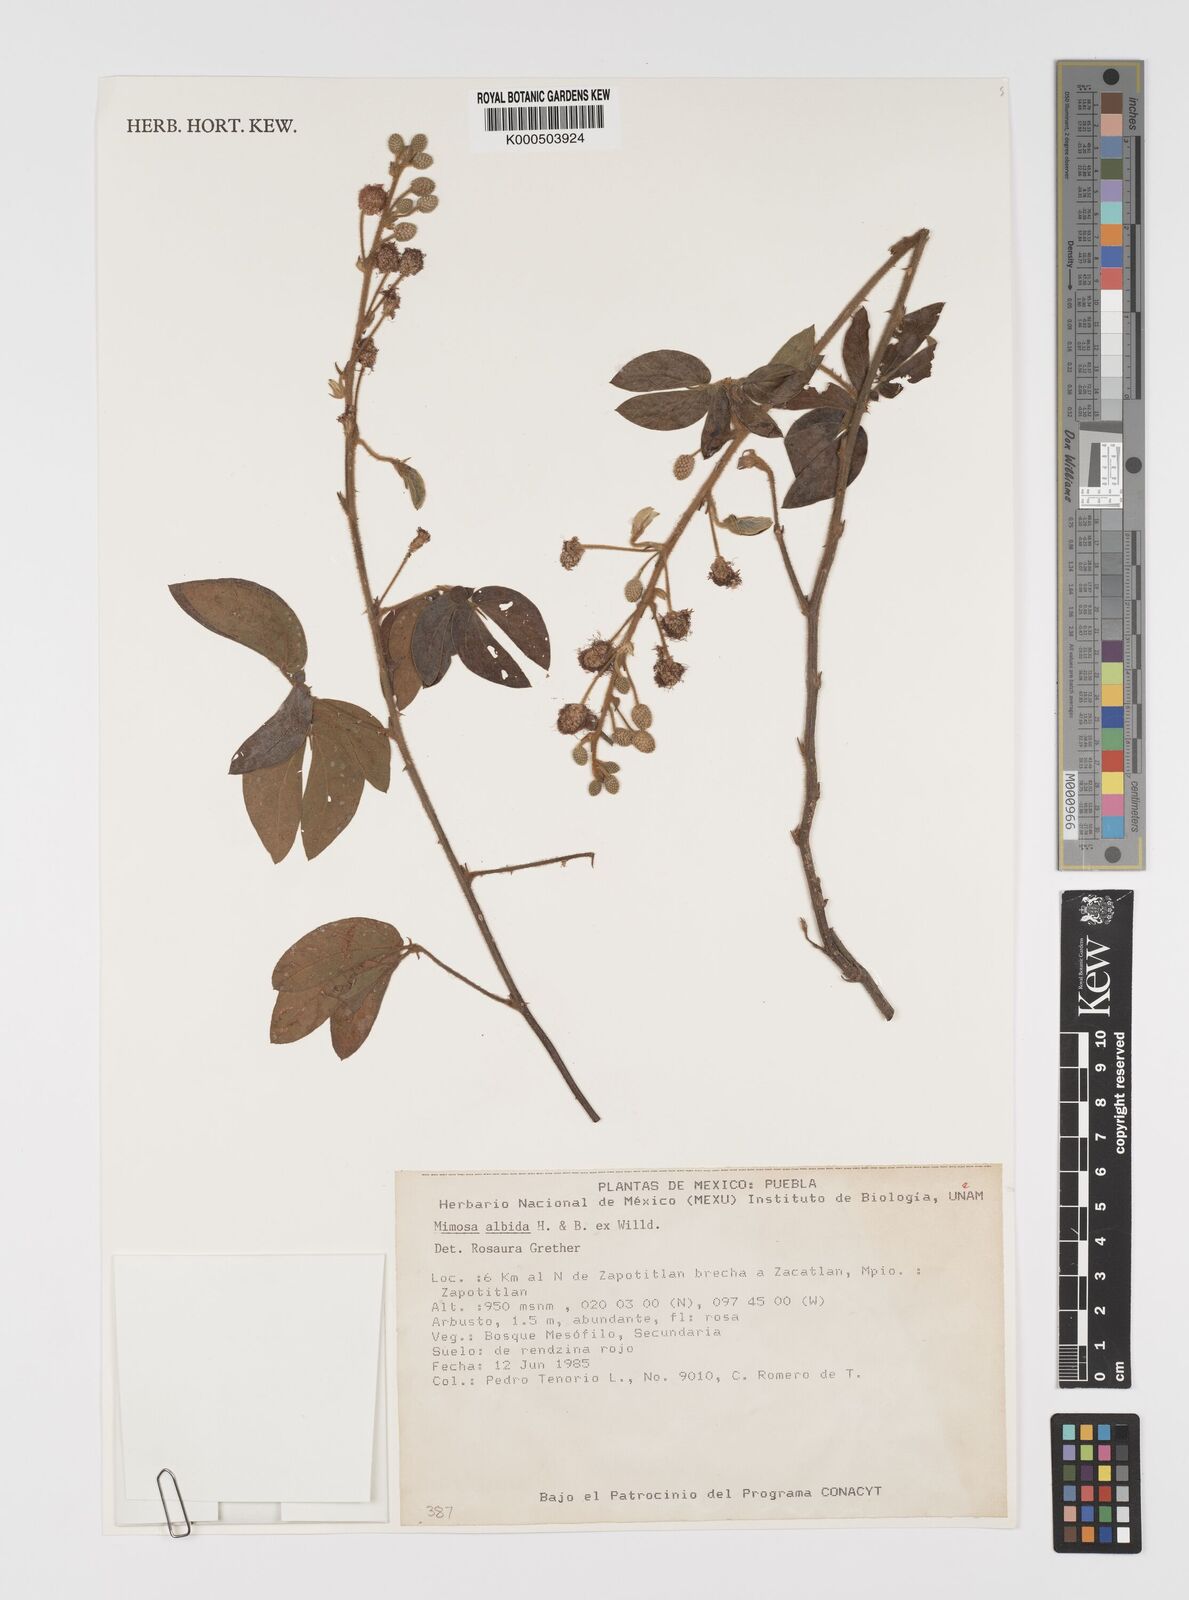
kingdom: Plantae
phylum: Tracheophyta
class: Magnoliopsida
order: Fabales
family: Fabaceae
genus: Mimosa
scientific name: Mimosa albida
